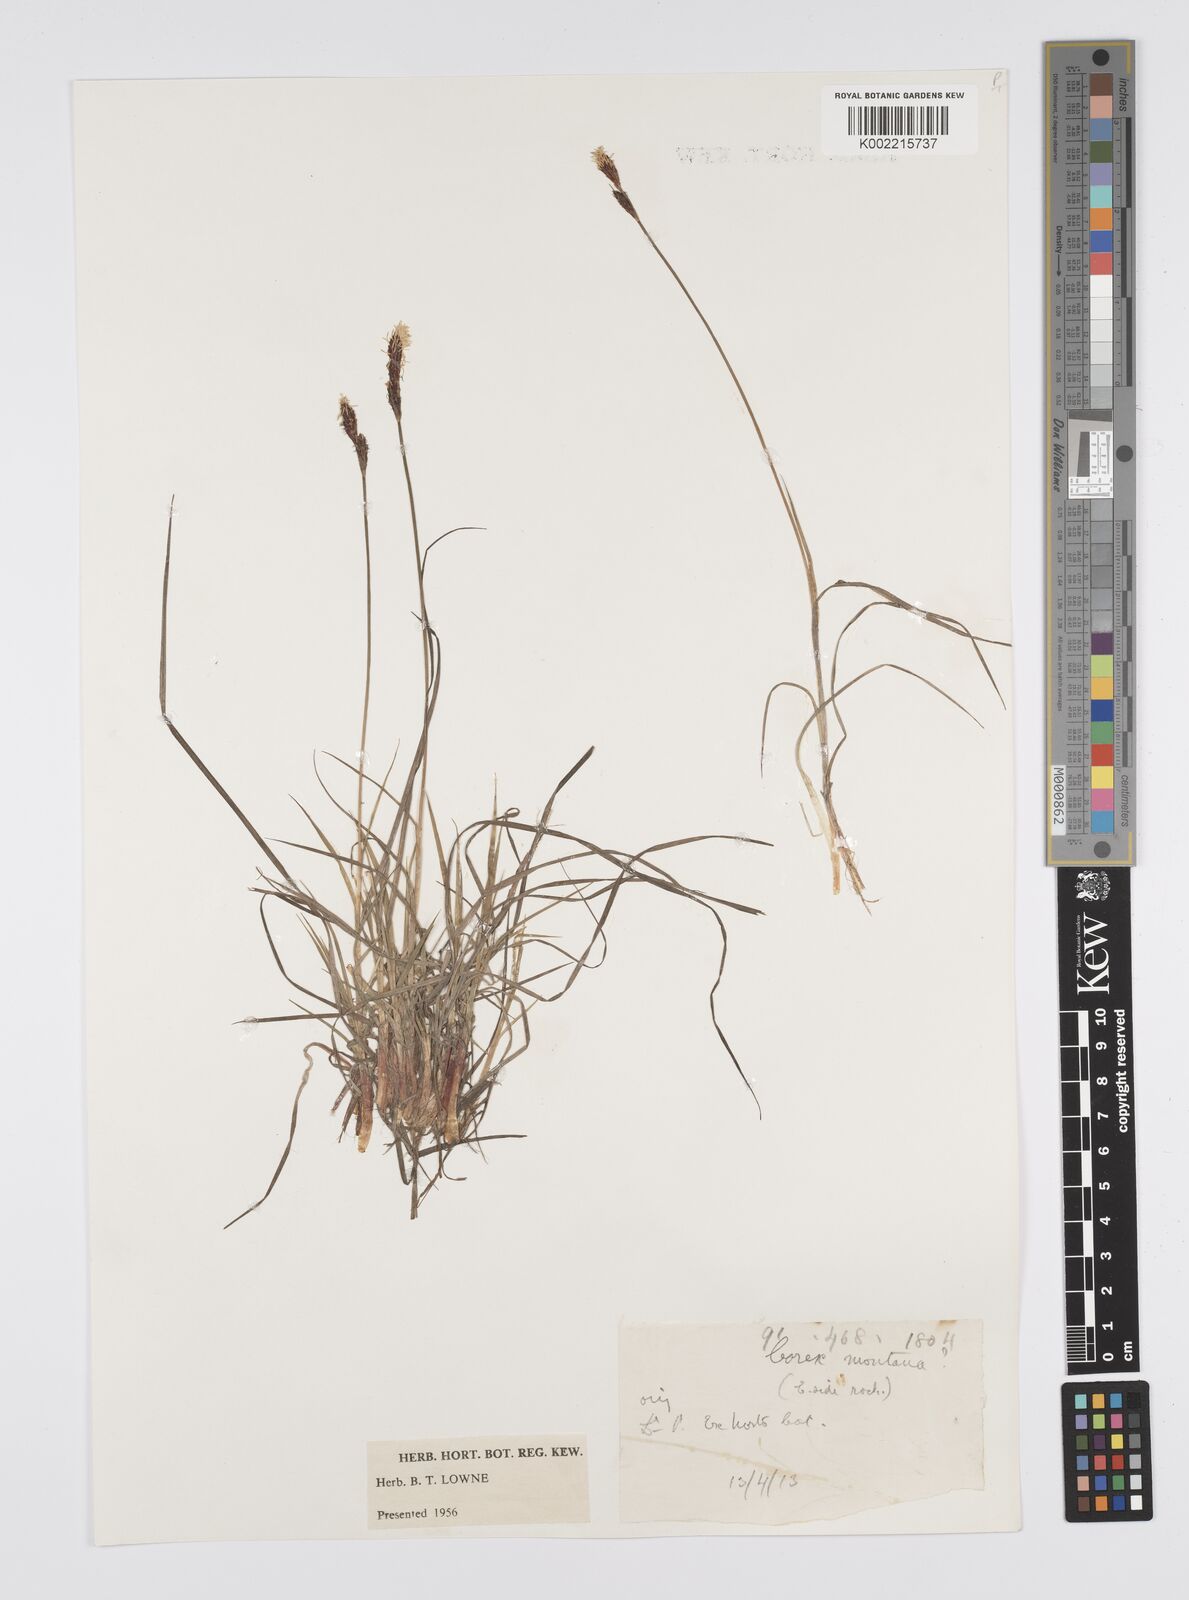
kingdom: Plantae
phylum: Tracheophyta
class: Liliopsida
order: Poales
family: Cyperaceae
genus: Carex
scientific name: Carex
